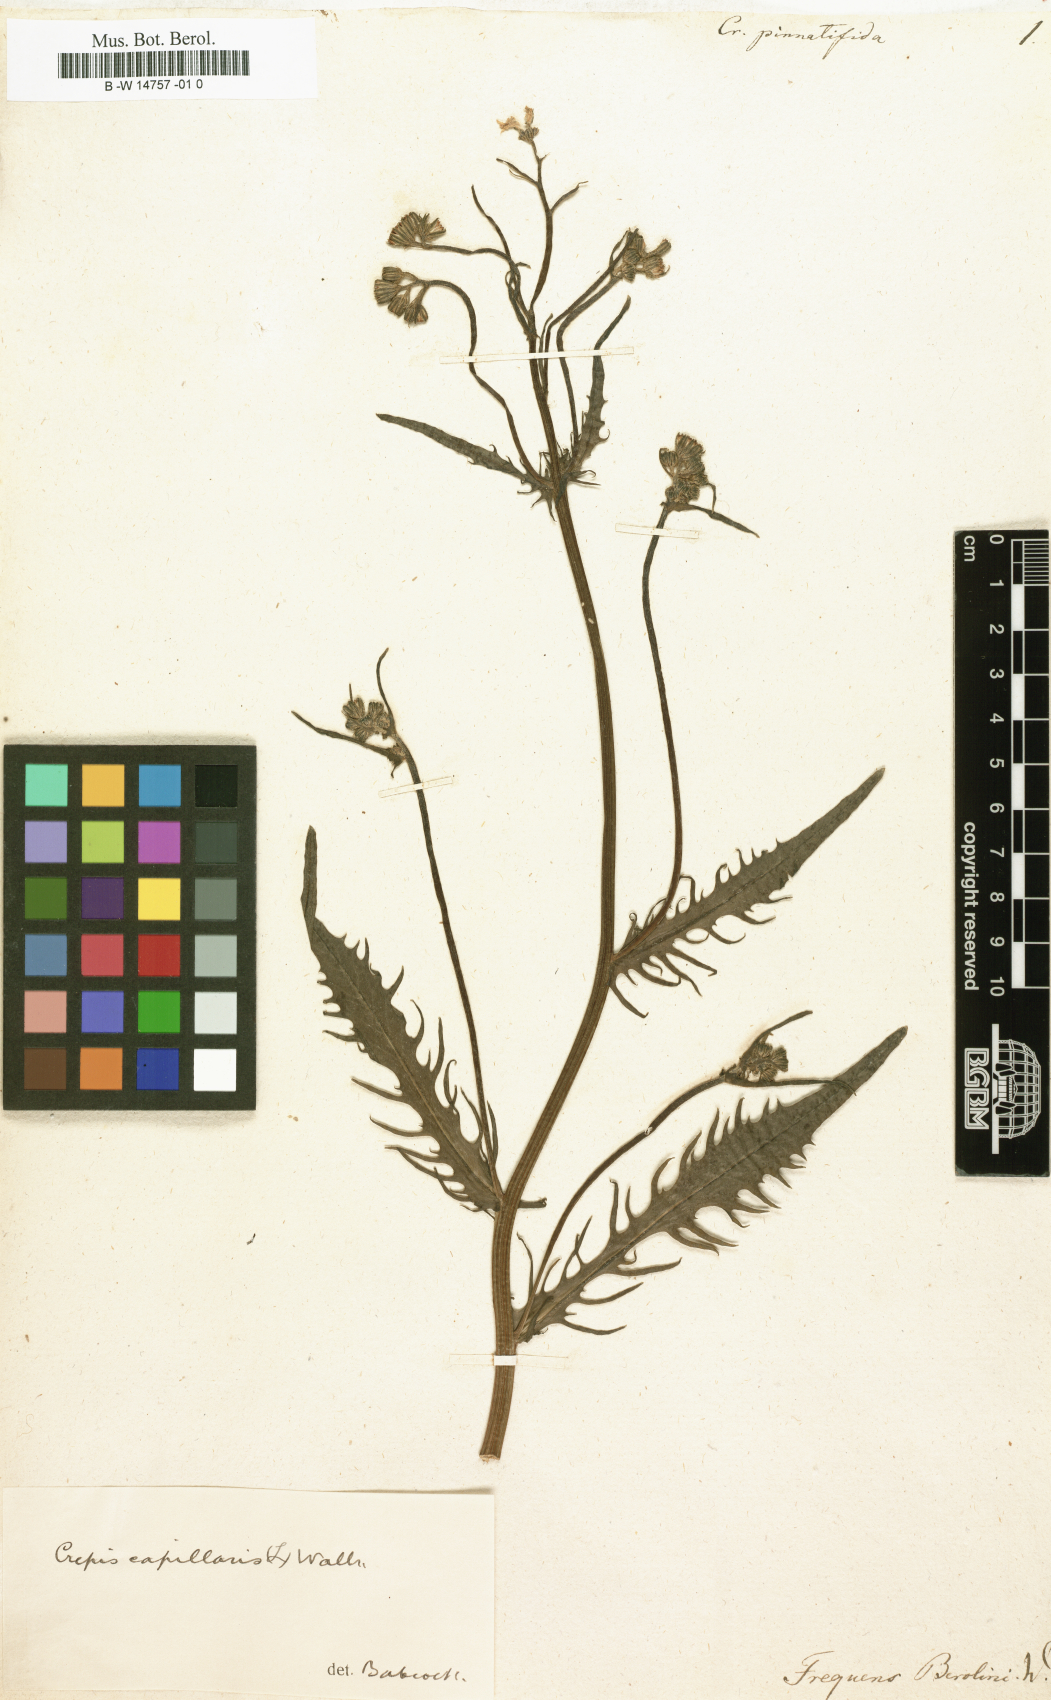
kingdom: Plantae
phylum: Tracheophyta
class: Magnoliopsida
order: Asterales
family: Asteraceae
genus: Crepis
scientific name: Crepis
